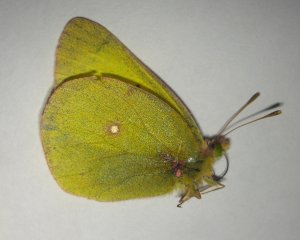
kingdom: Animalia
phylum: Arthropoda
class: Insecta
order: Lepidoptera
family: Pieridae
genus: Colias
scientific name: Colias interior
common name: Pink-edged Sulphur
